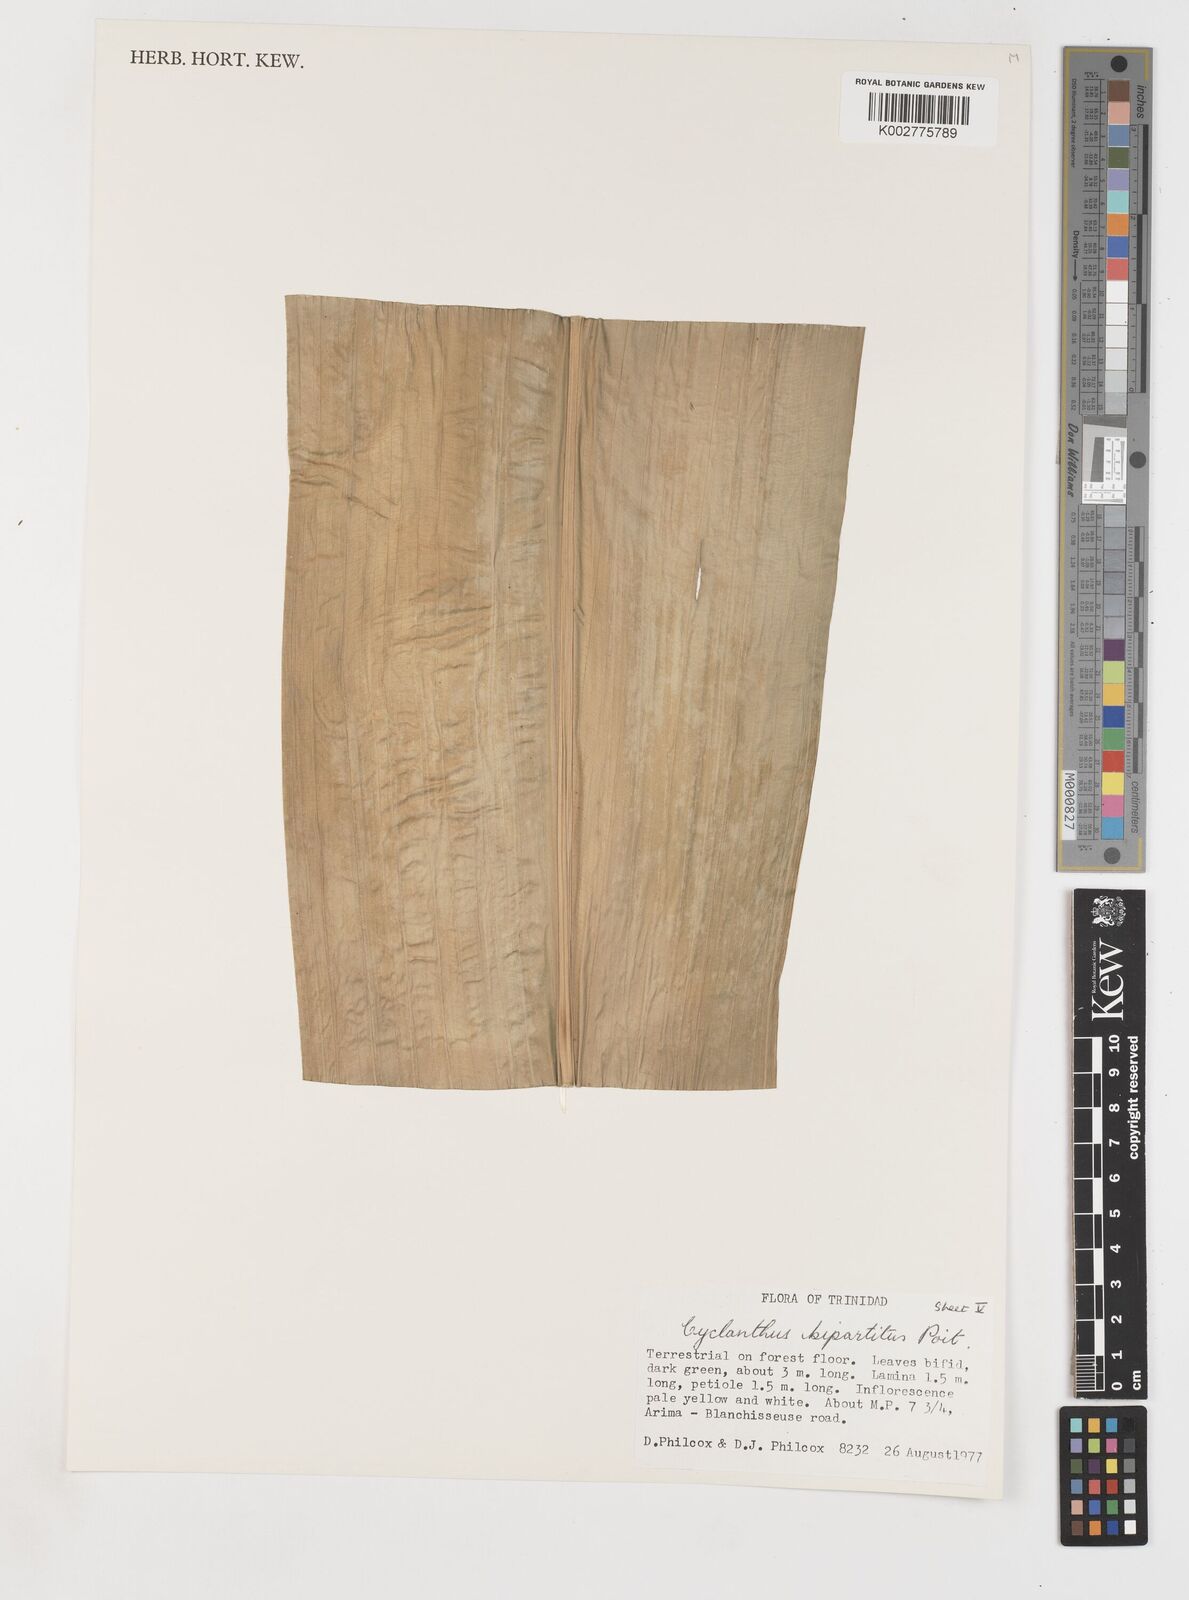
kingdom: Plantae
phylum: Tracheophyta
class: Liliopsida
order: Pandanales
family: Cyclanthaceae
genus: Cyclanthus
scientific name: Cyclanthus bipartitus
